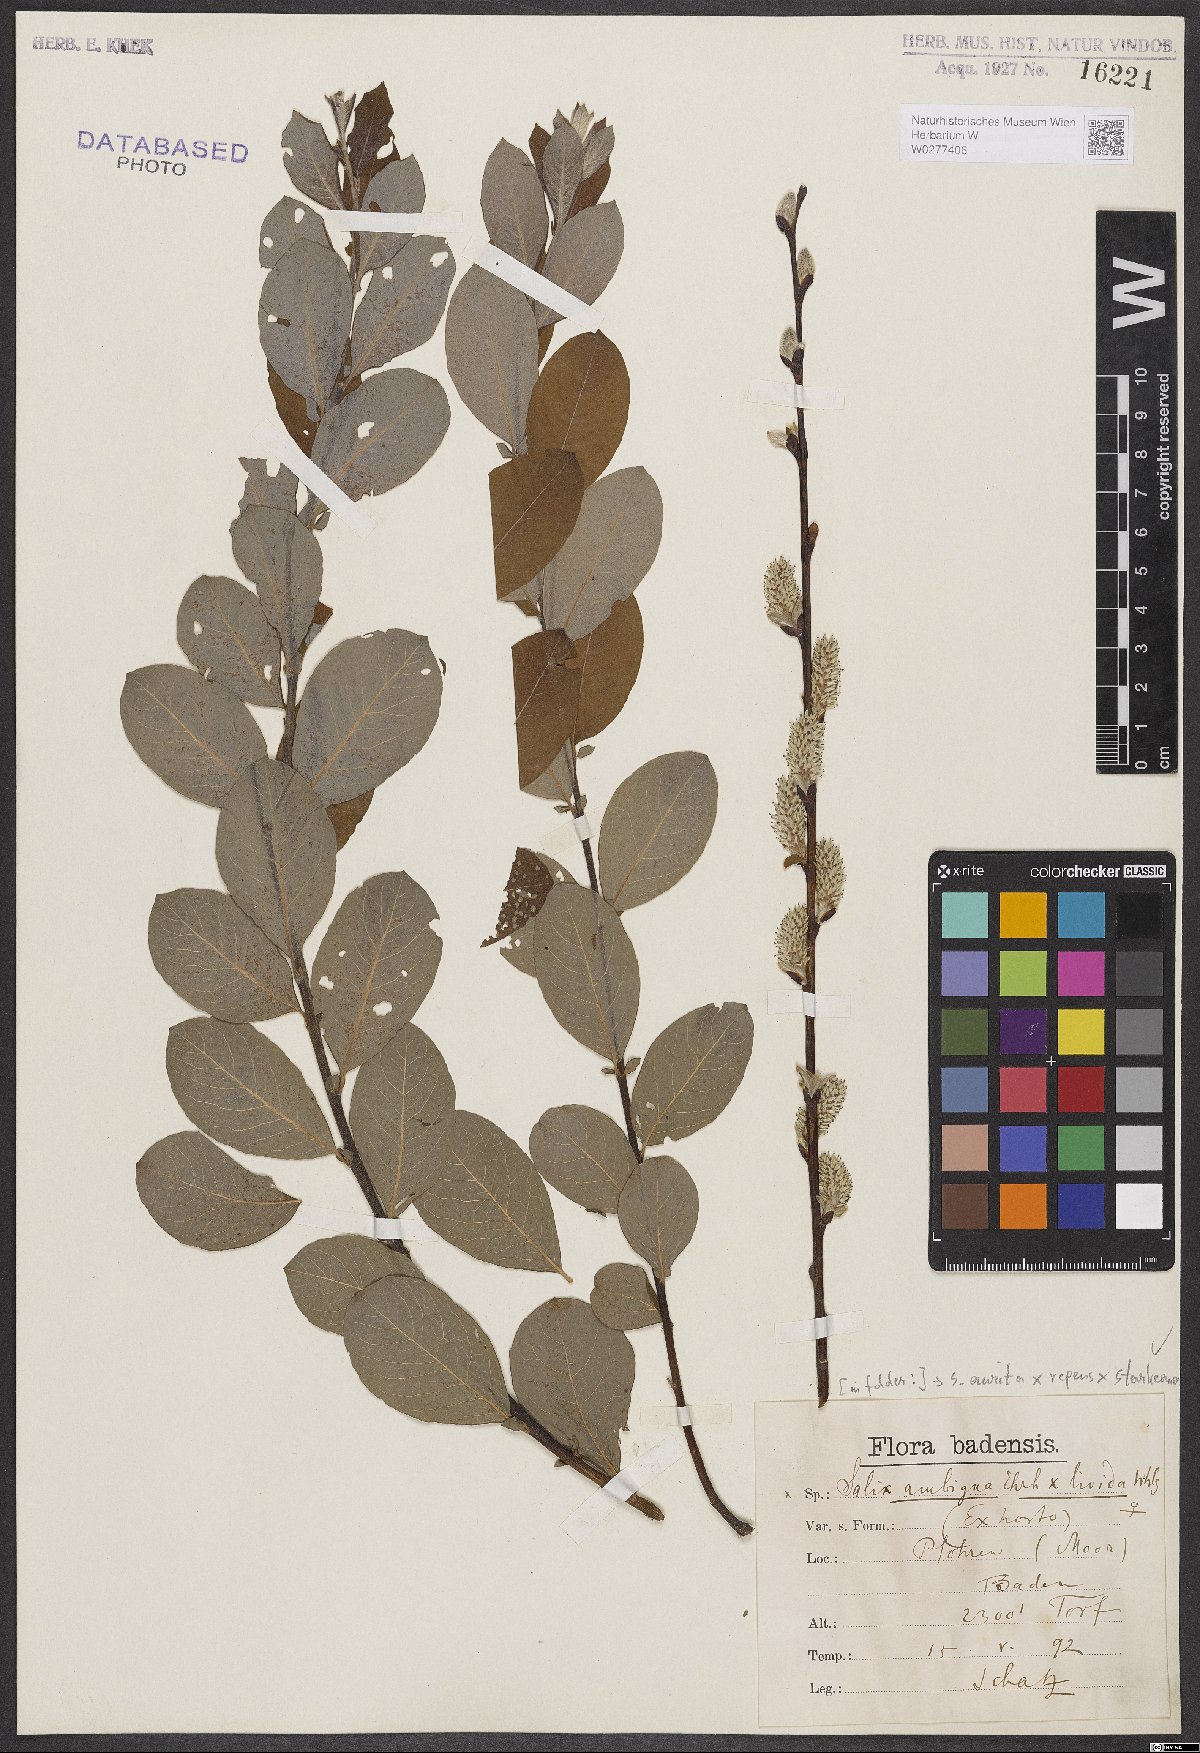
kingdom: Plantae
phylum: Tracheophyta
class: Magnoliopsida
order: Malpighiales
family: Salicaceae
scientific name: Salicaceae
